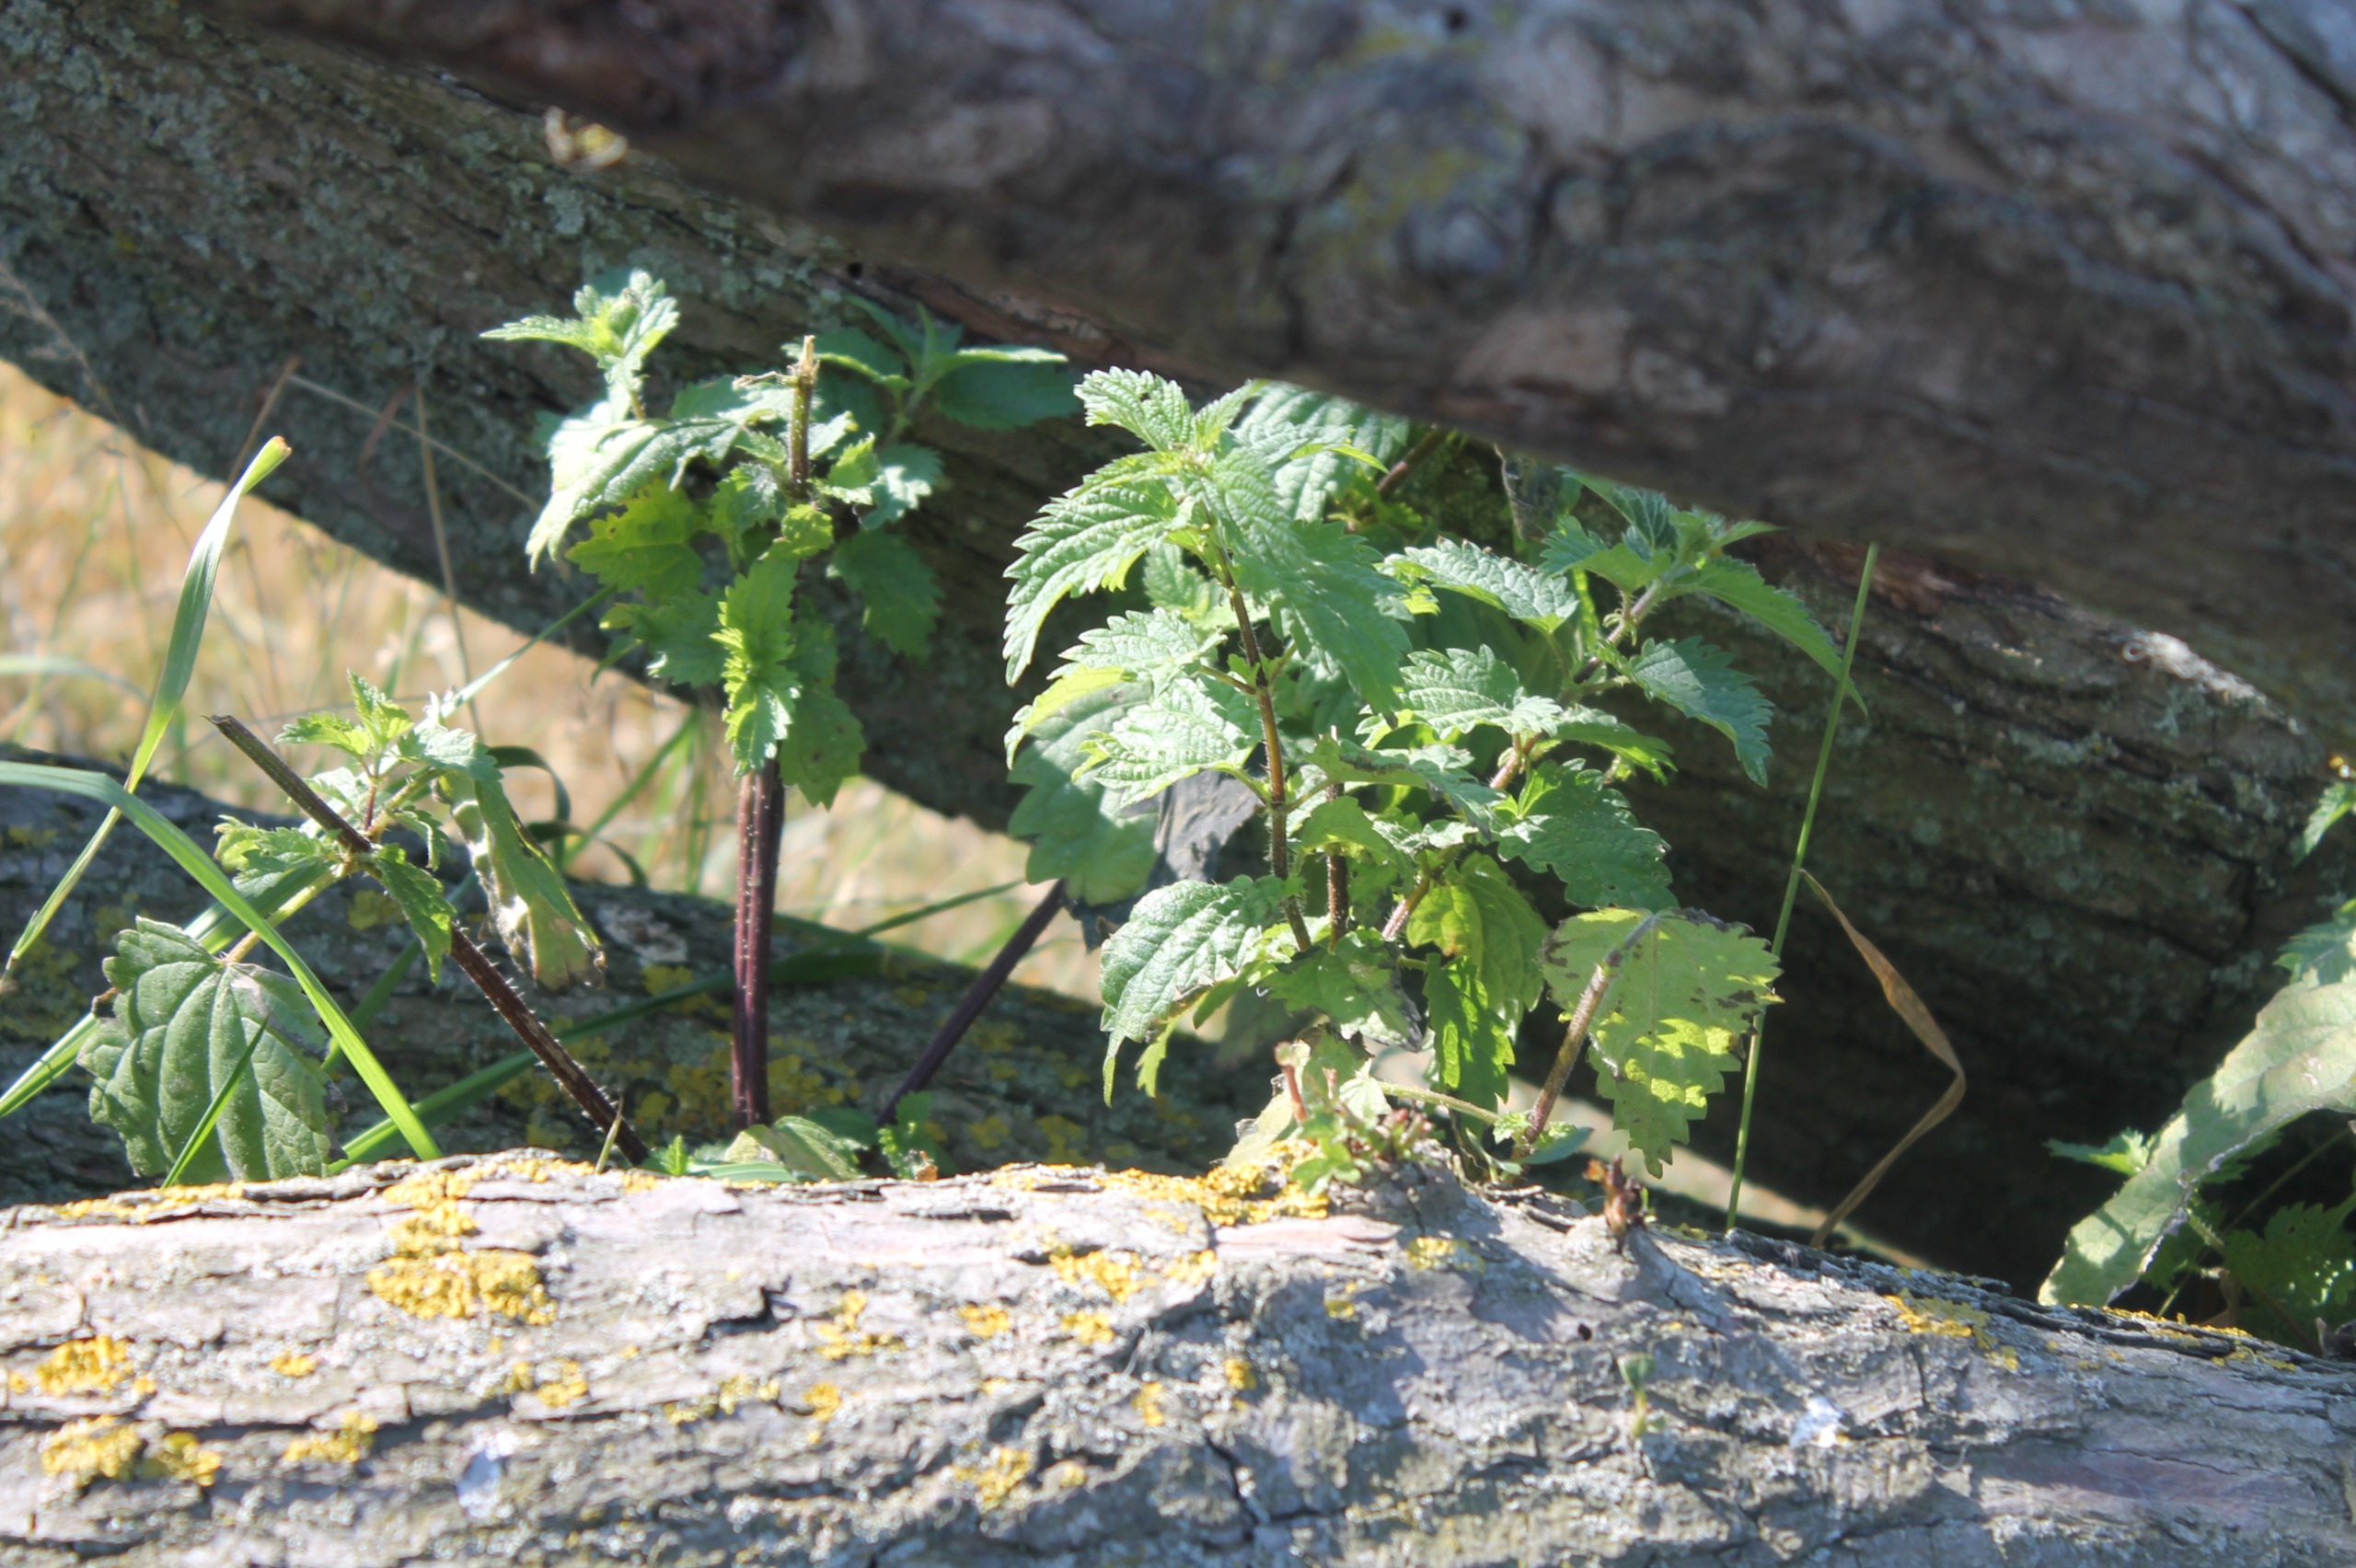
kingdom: Plantae
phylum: Tracheophyta
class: Magnoliopsida
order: Rosales
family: Urticaceae
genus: Urtica
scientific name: Urtica dioica
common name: Stor nælde
